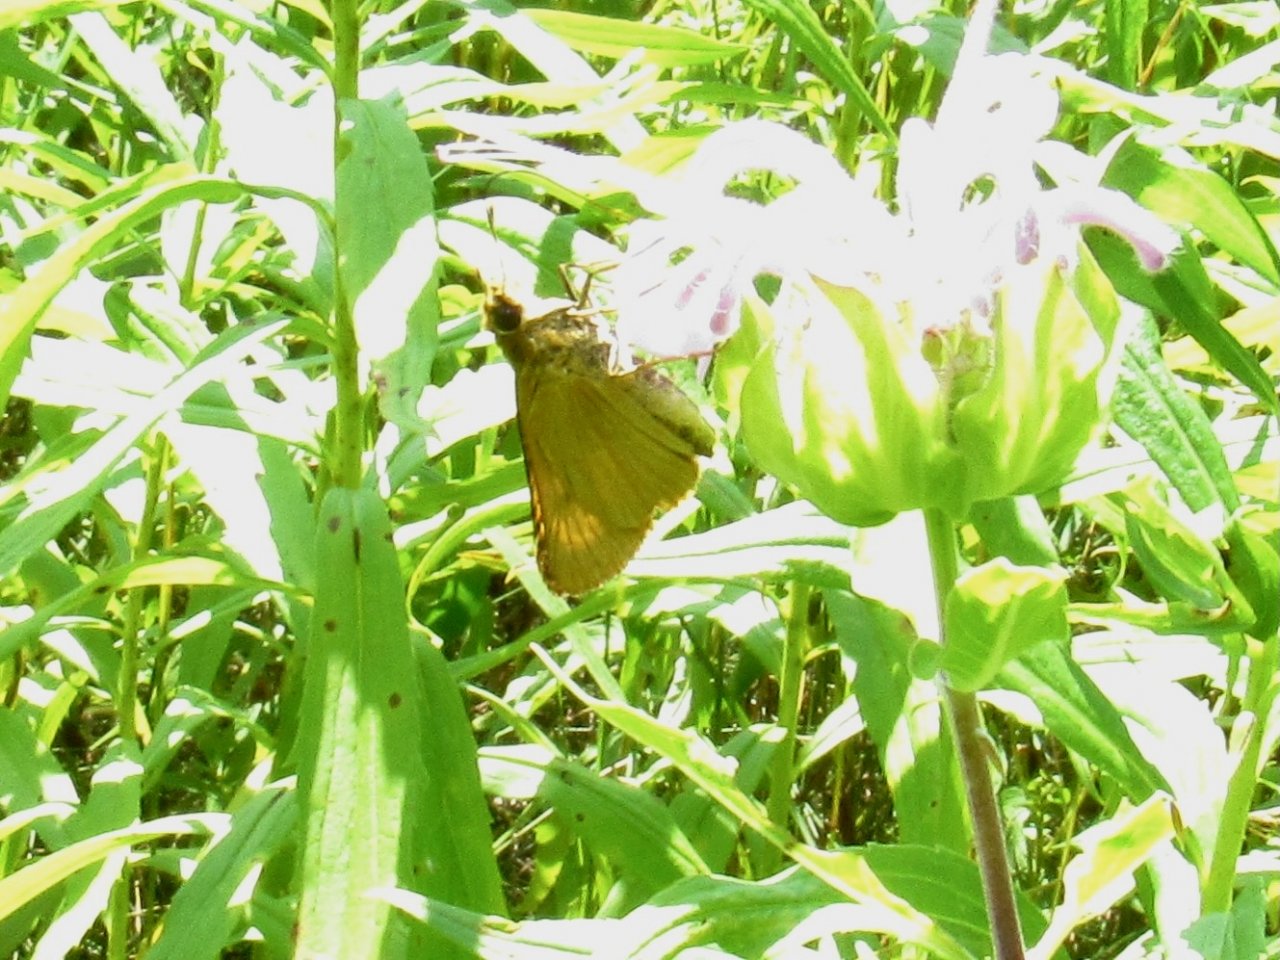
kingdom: Animalia
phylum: Arthropoda
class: Insecta
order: Lepidoptera
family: Hesperiidae
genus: Atrytone
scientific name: Atrytone delaware
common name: Delaware Skipper
